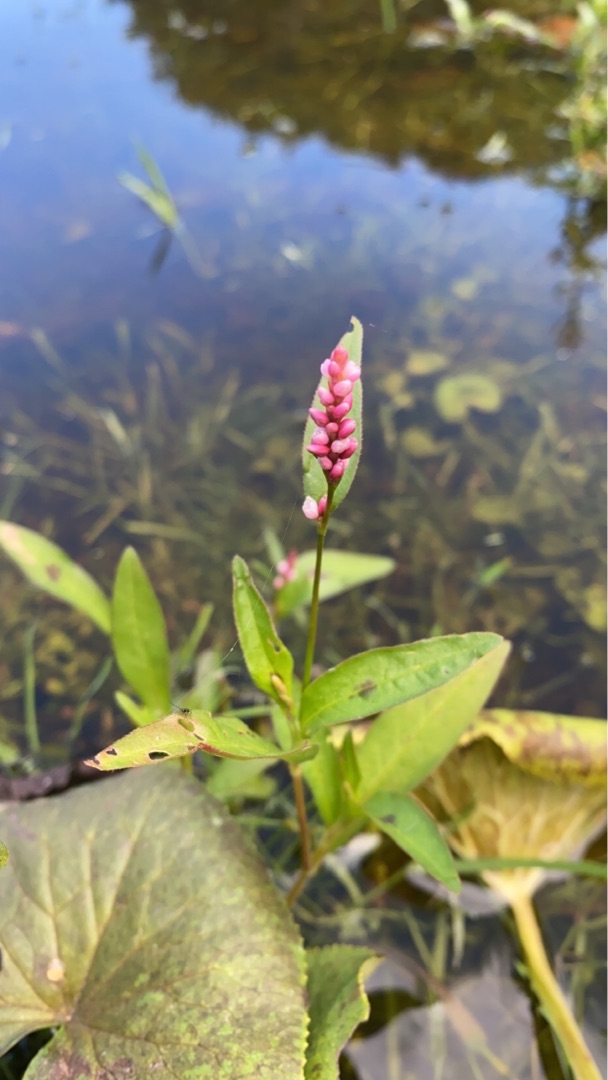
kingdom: Plantae
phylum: Tracheophyta
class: Magnoliopsida
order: Caryophyllales
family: Polygonaceae
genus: Persicaria
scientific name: Persicaria maculosa
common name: Fersken-pileurt
